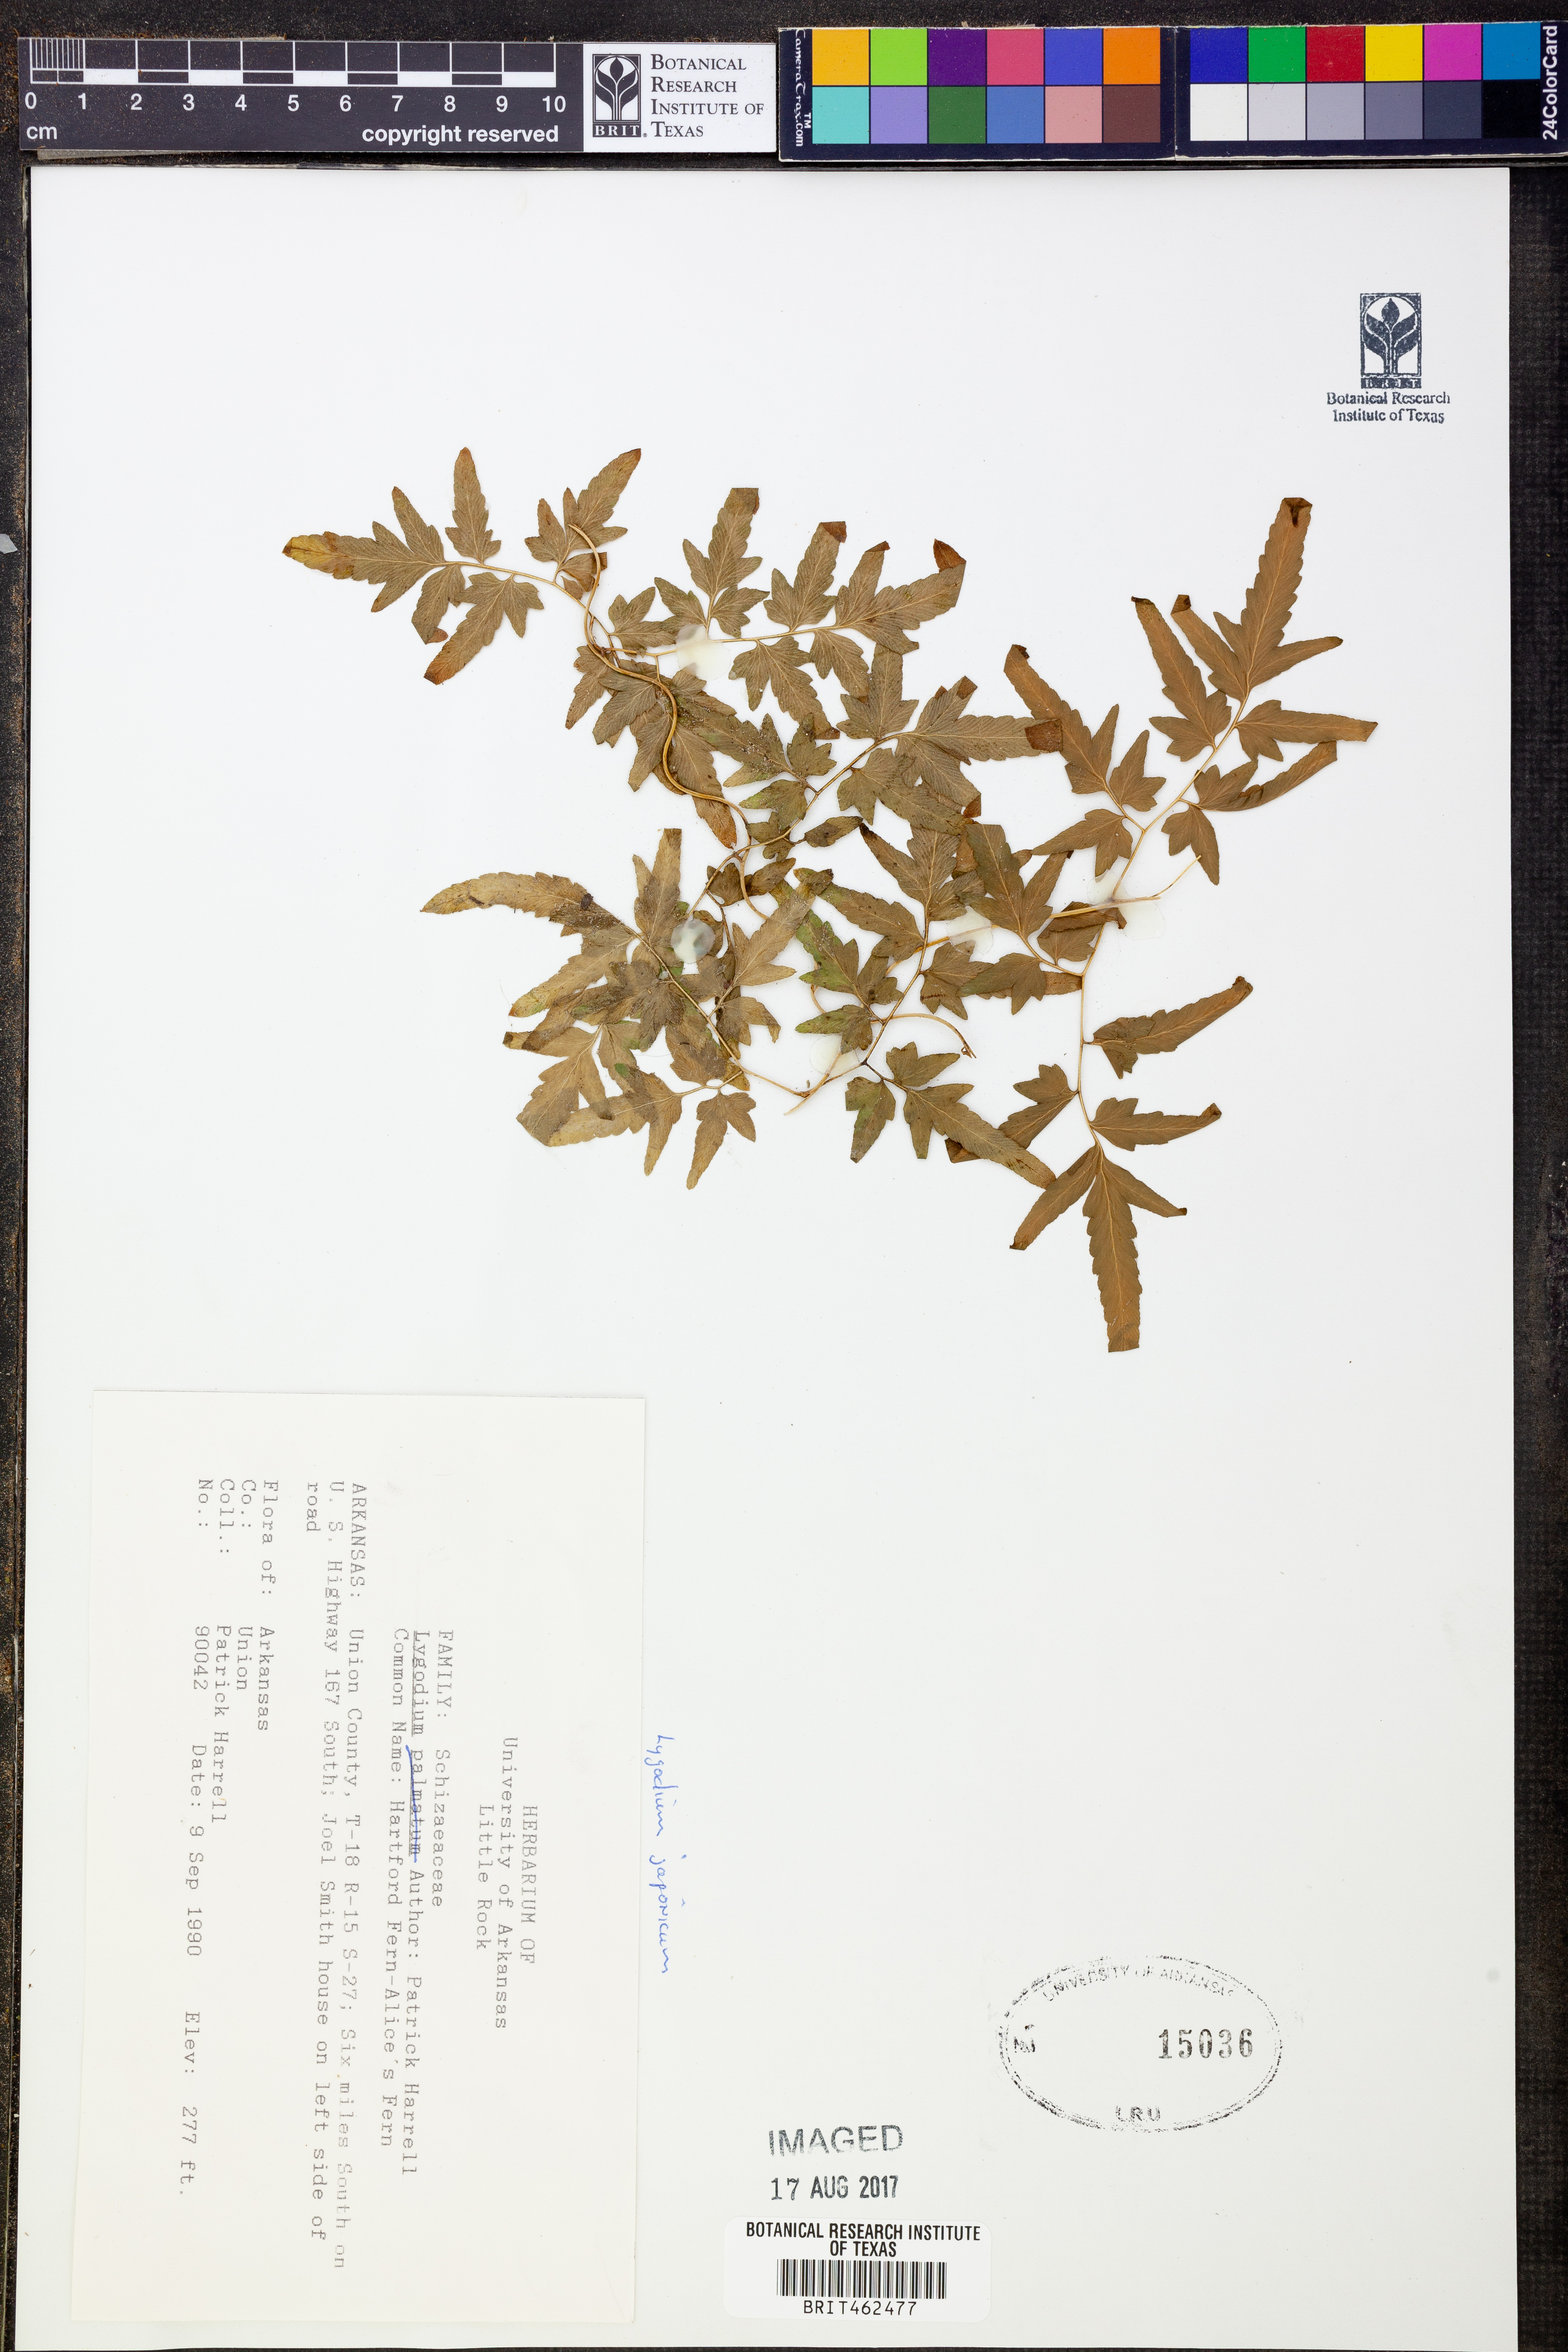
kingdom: Plantae
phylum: Tracheophyta
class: Polypodiopsida
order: Schizaeales
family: Lygodiaceae
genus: Lygodium
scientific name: Lygodium japonicum
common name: Japanese climbing fern
